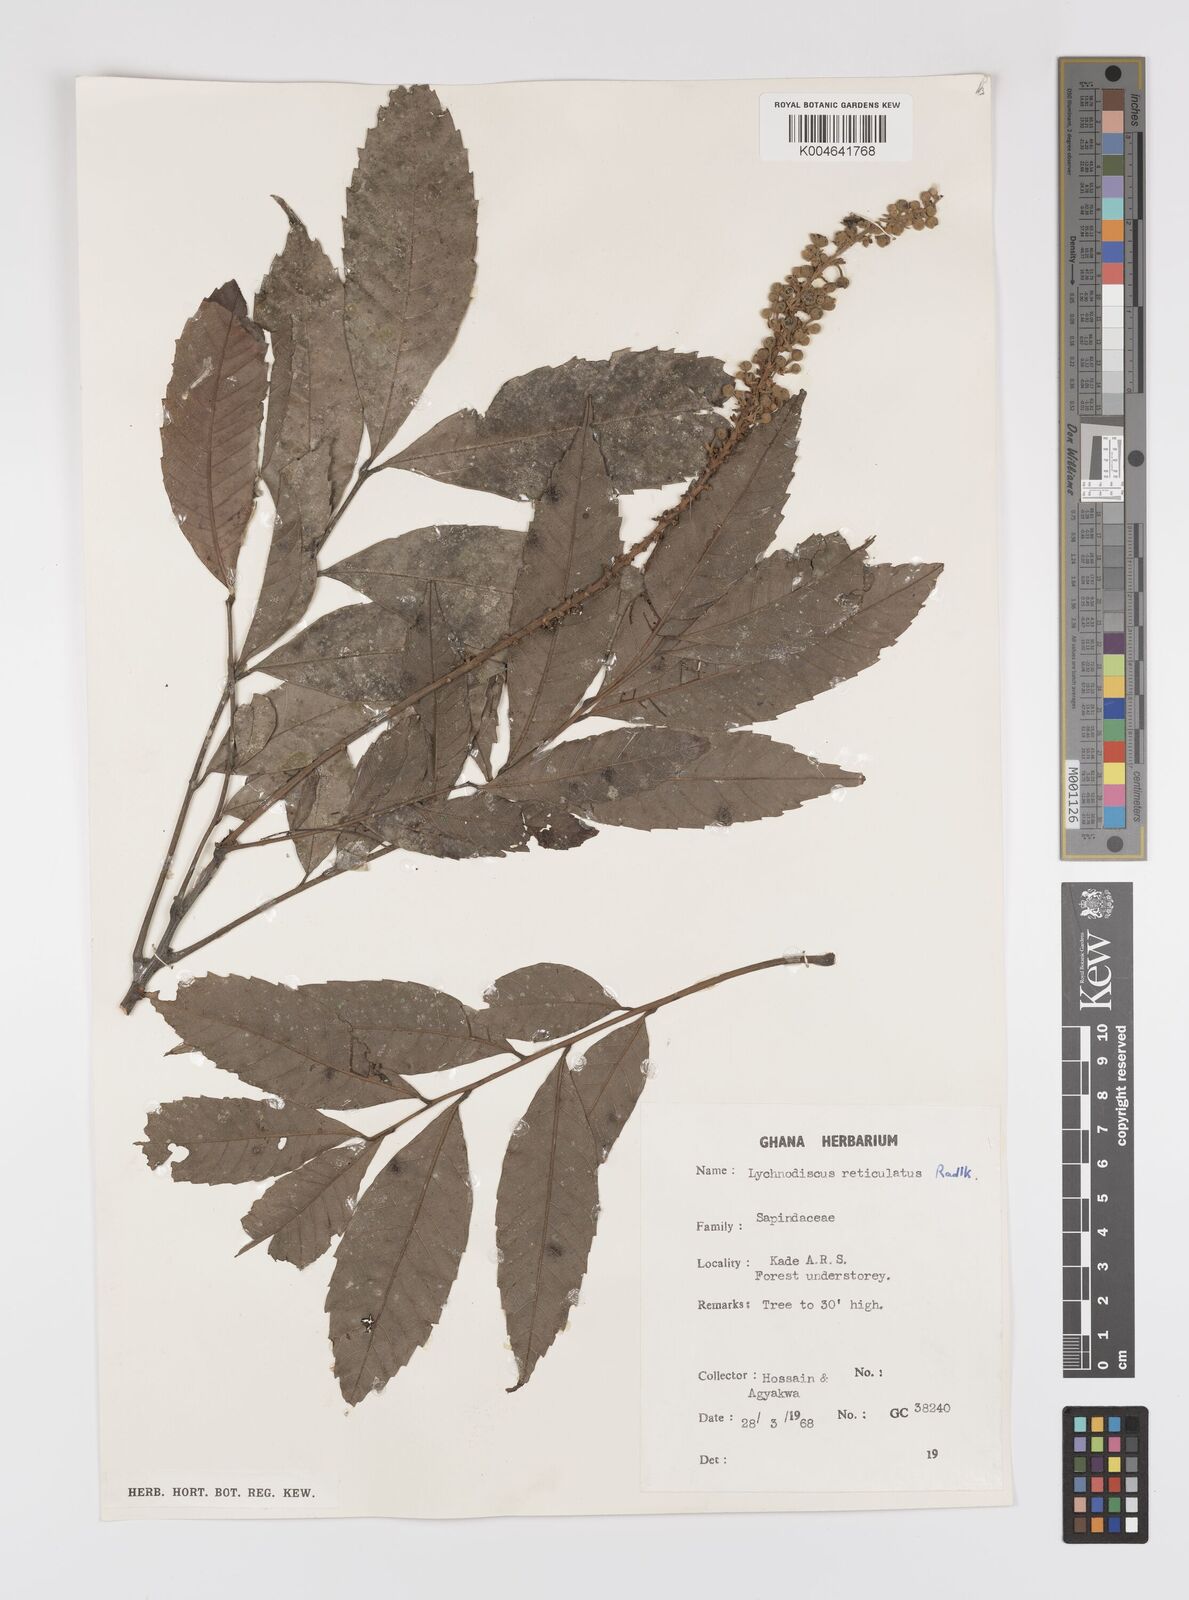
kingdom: Plantae
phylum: Tracheophyta
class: Magnoliopsida
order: Sapindales
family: Sapindaceae
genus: Lychnodiscus
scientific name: Lychnodiscus reticulatus
